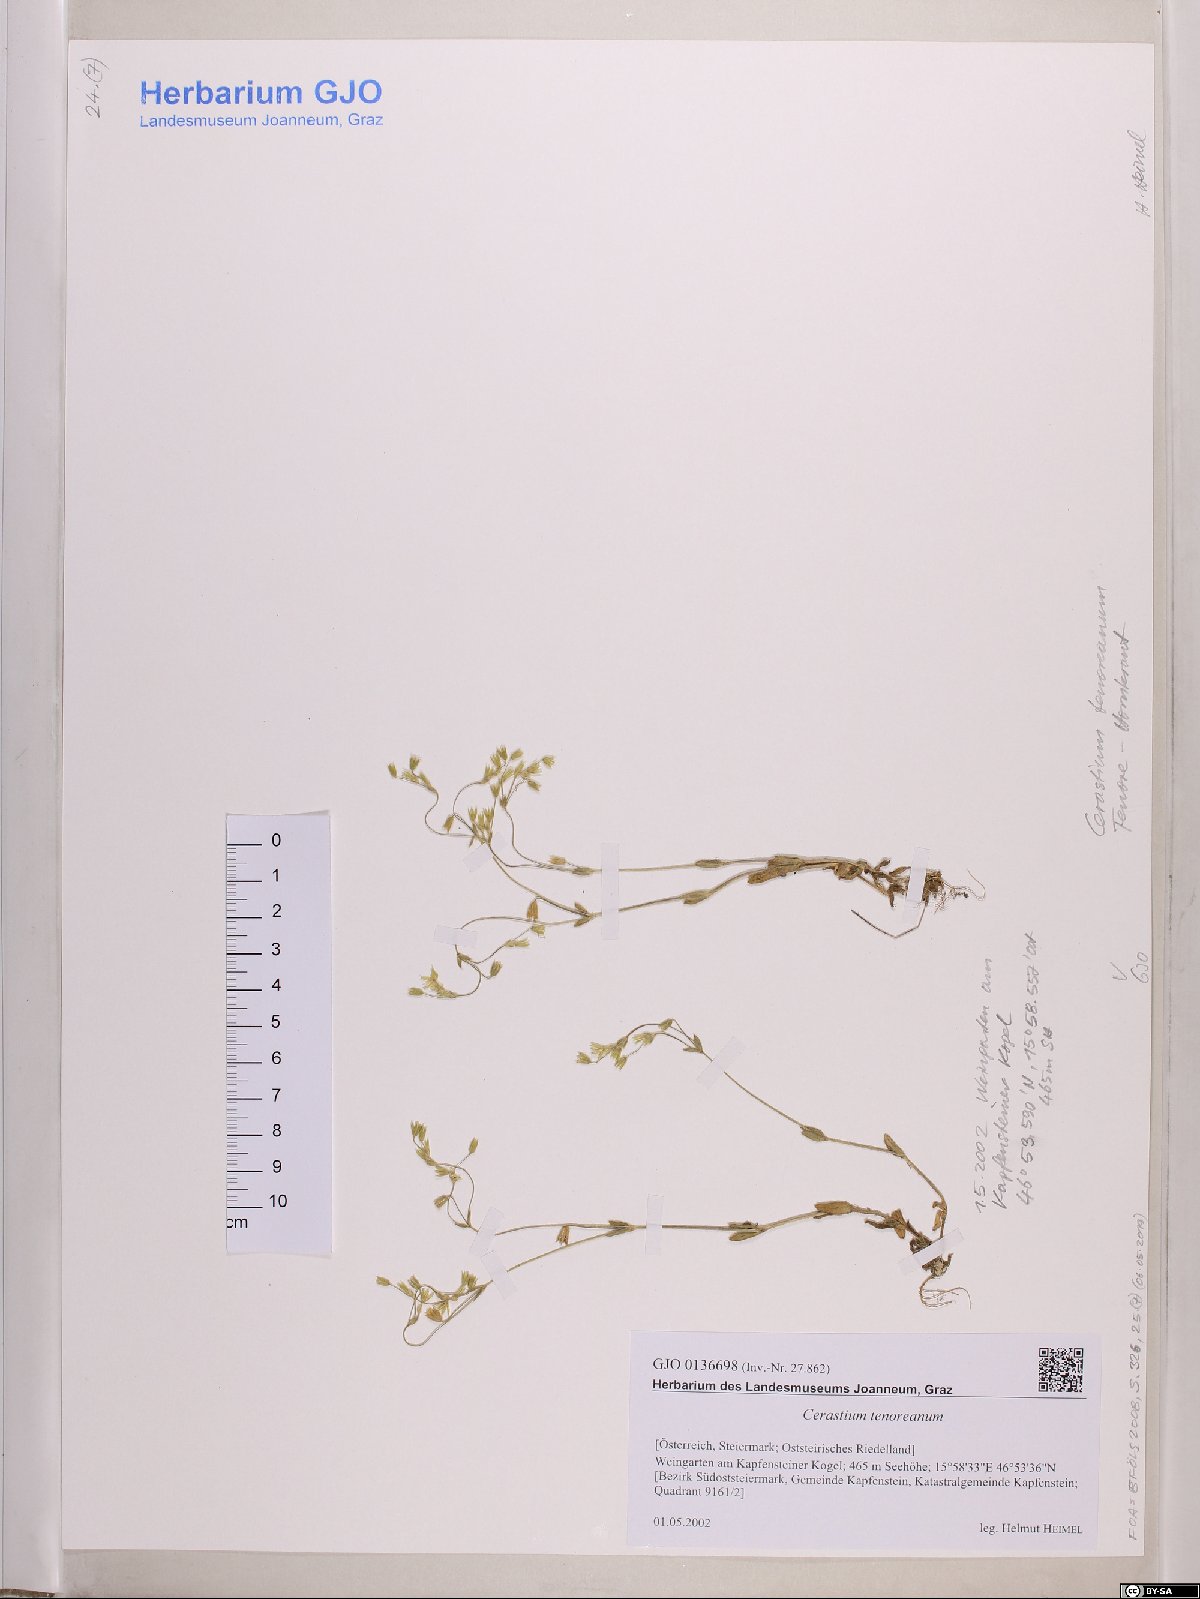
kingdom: Plantae
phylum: Tracheophyta
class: Magnoliopsida
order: Caryophyllales
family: Caryophyllaceae
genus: Cerastium
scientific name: Cerastium tenoreanum
